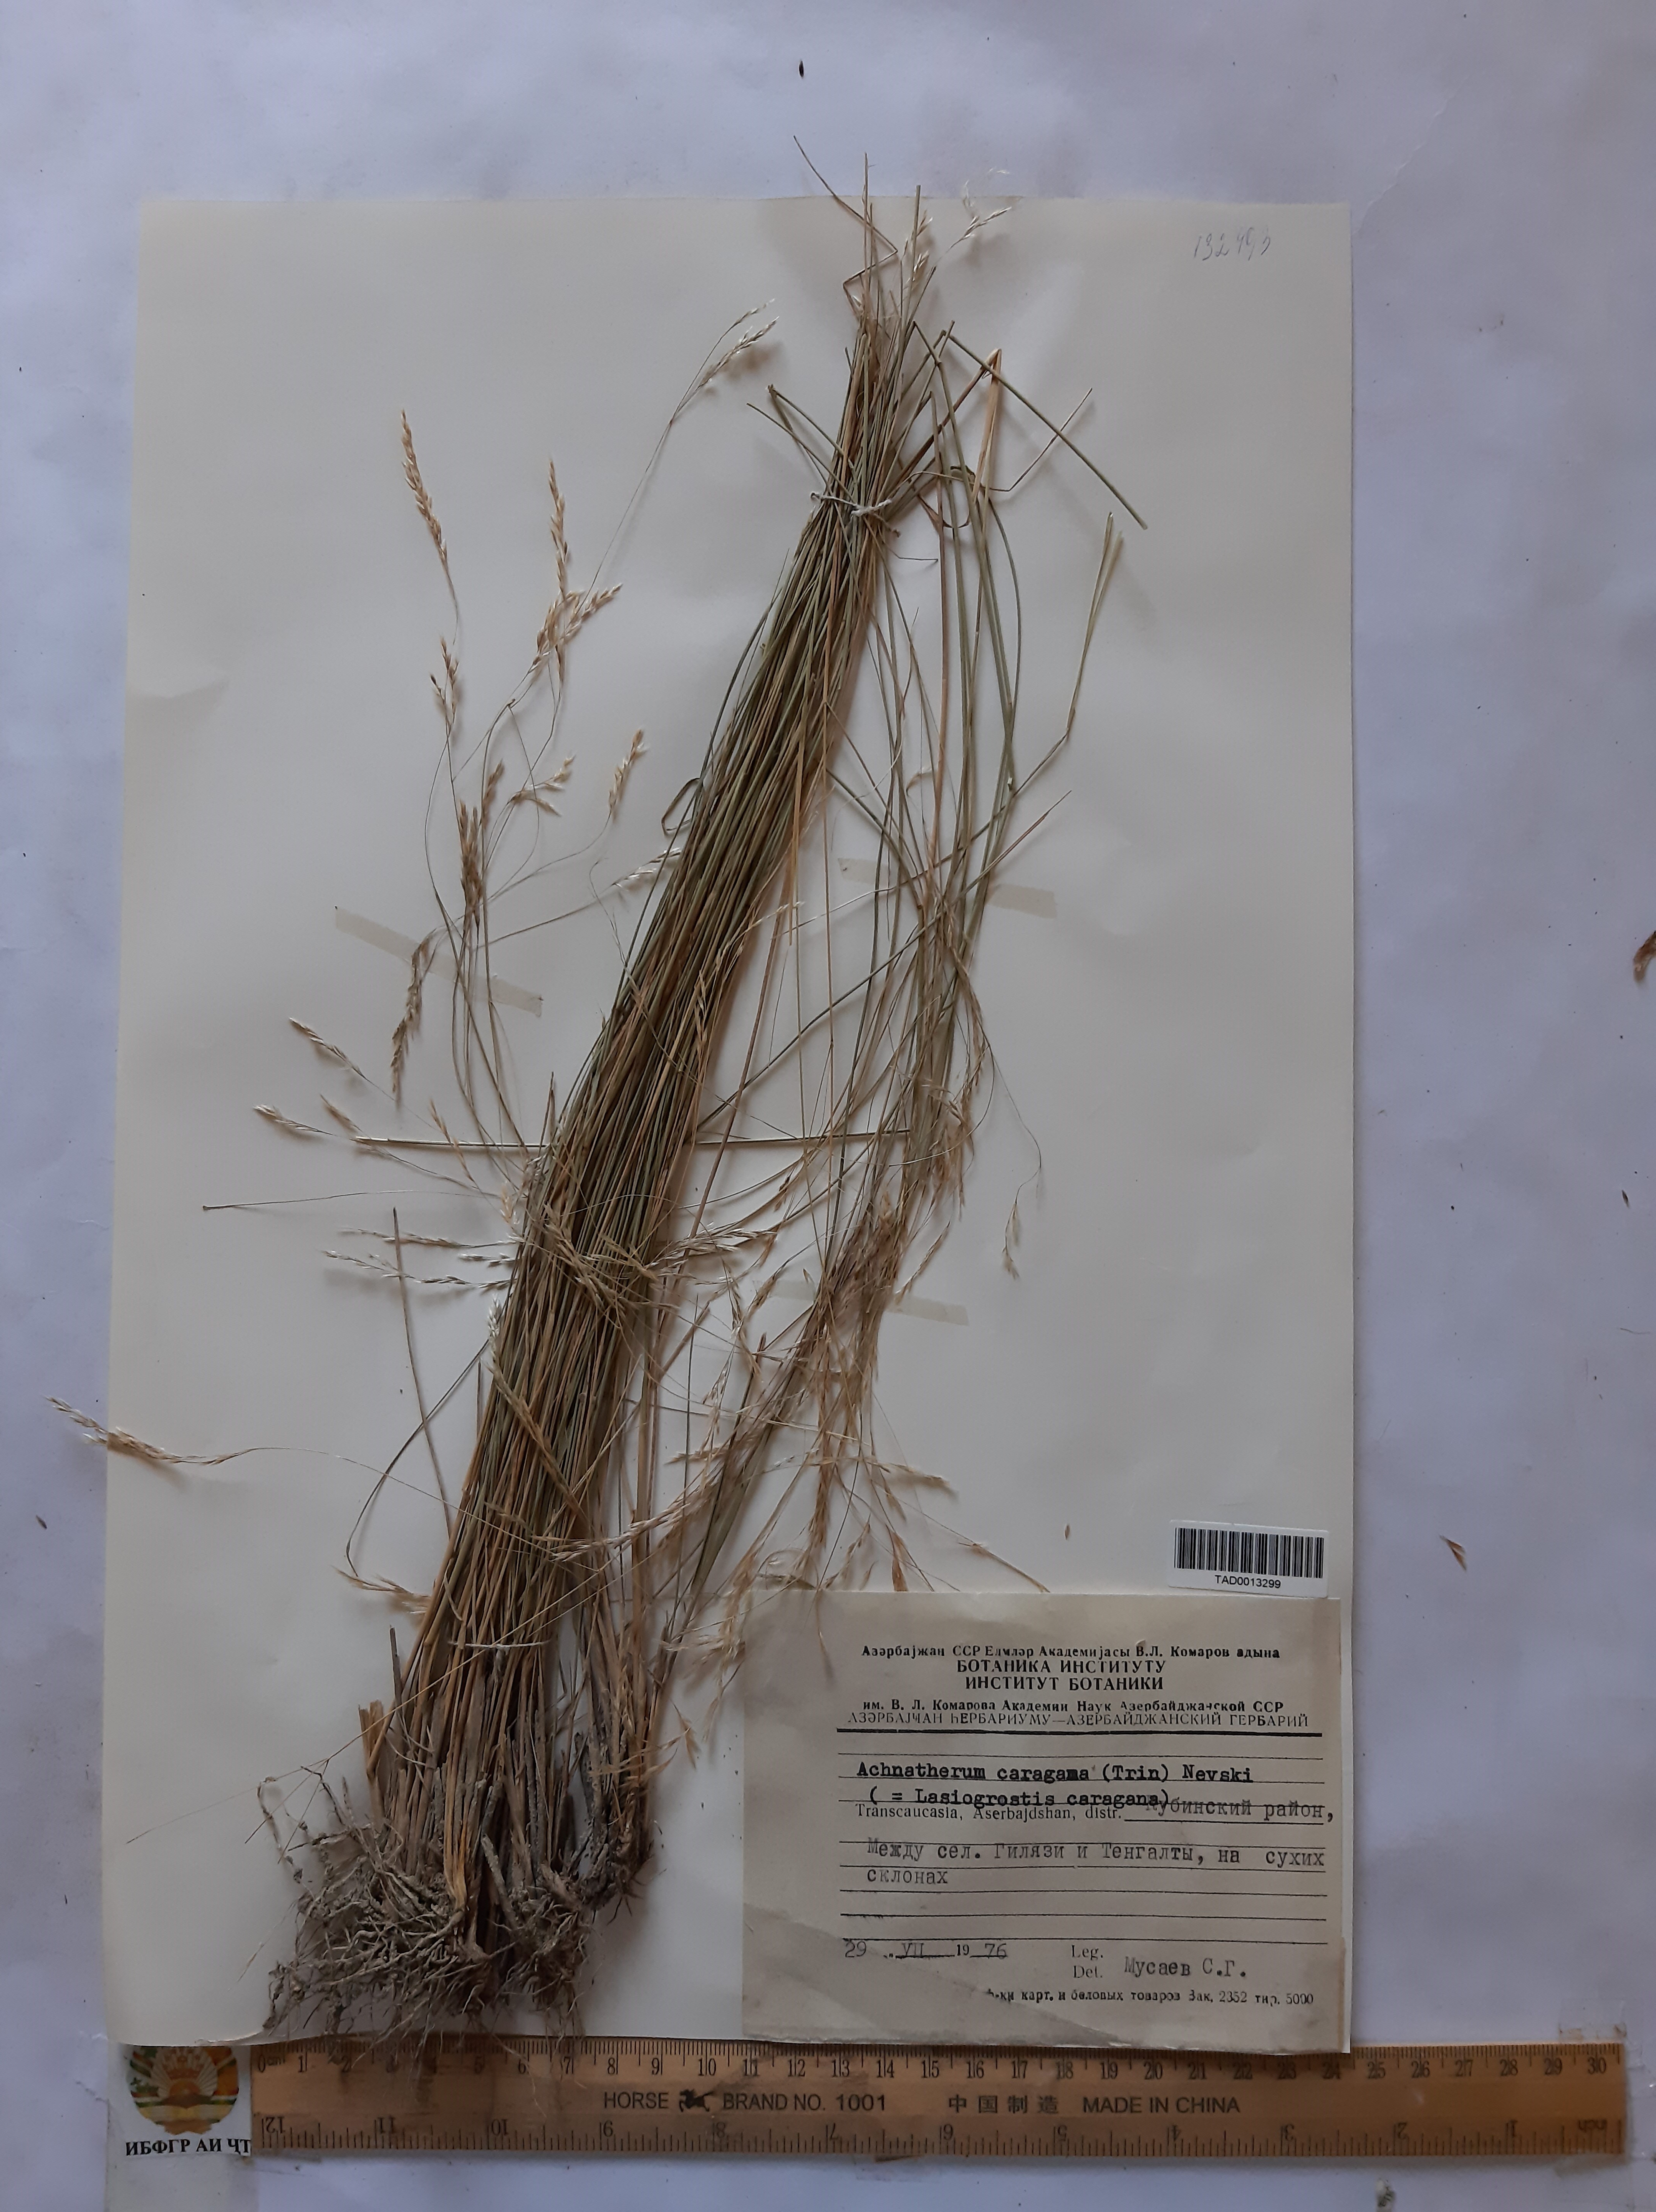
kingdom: Plantae
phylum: Tracheophyta
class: Liliopsida
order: Poales
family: Poaceae
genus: Stipa
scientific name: Stipa conferta
